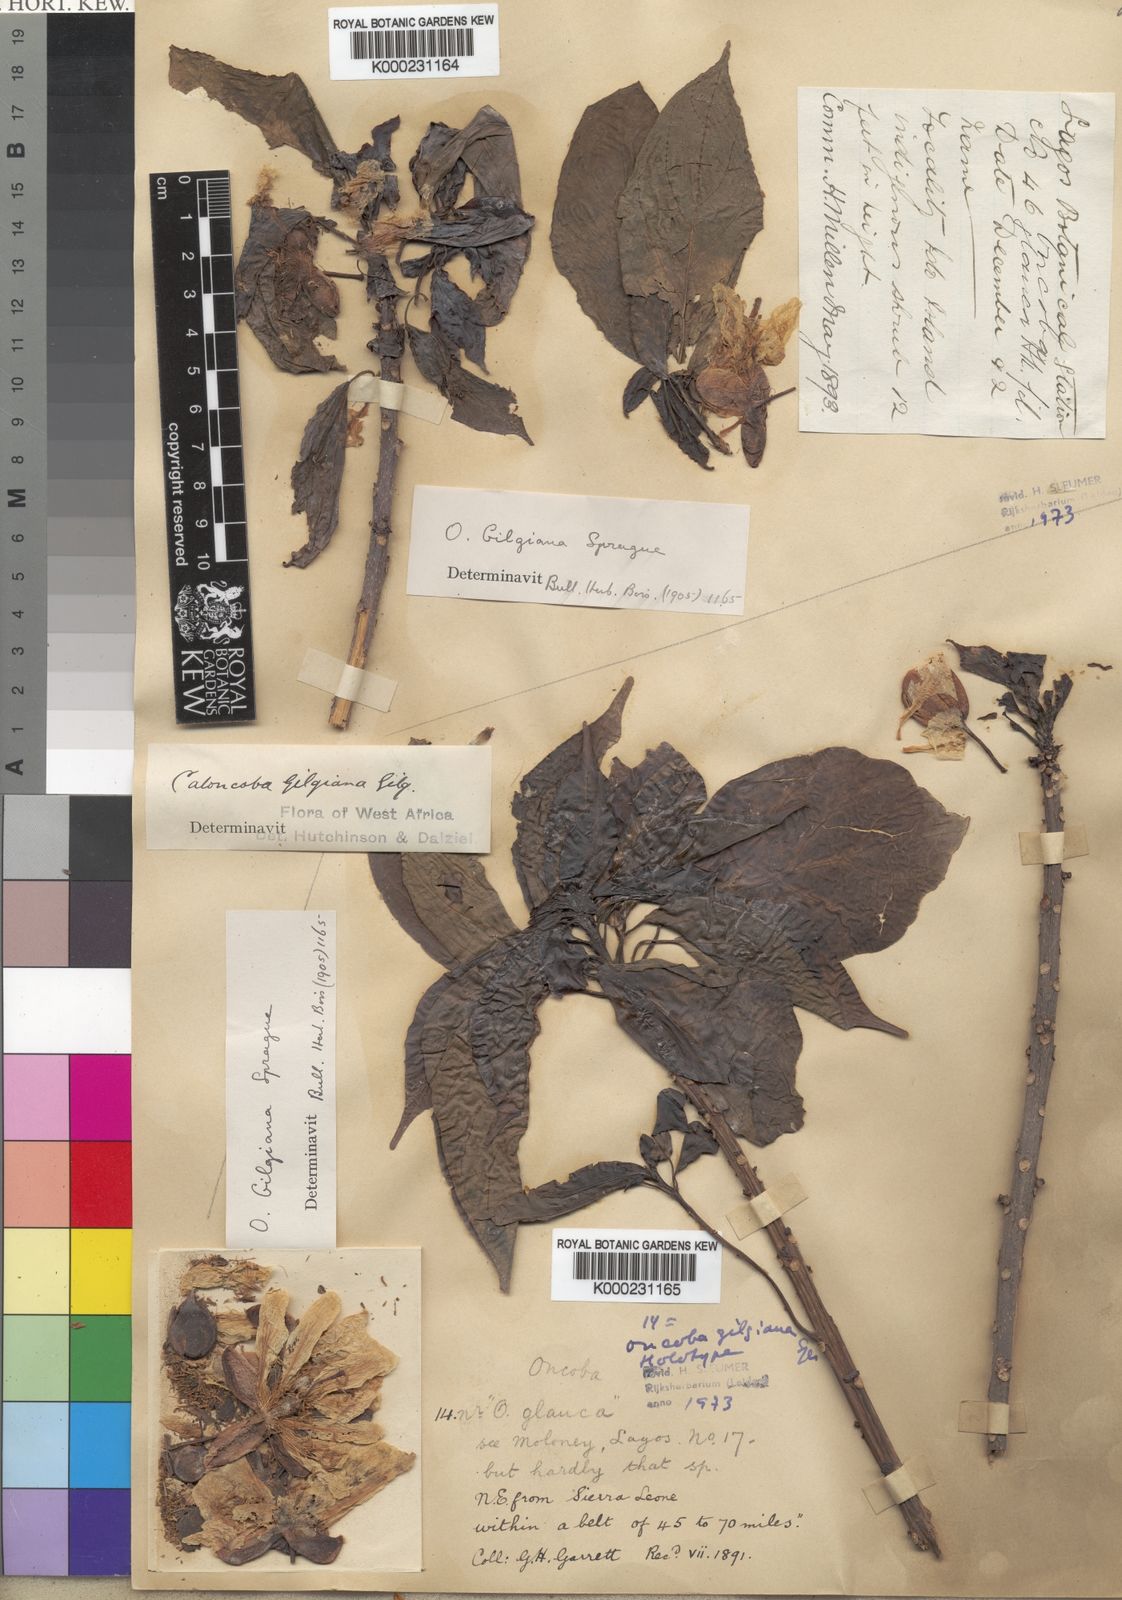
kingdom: Plantae
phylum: Tracheophyta
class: Magnoliopsida
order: Malpighiales
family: Achariaceae
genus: Caloncoba
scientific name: Caloncoba gilgiana
